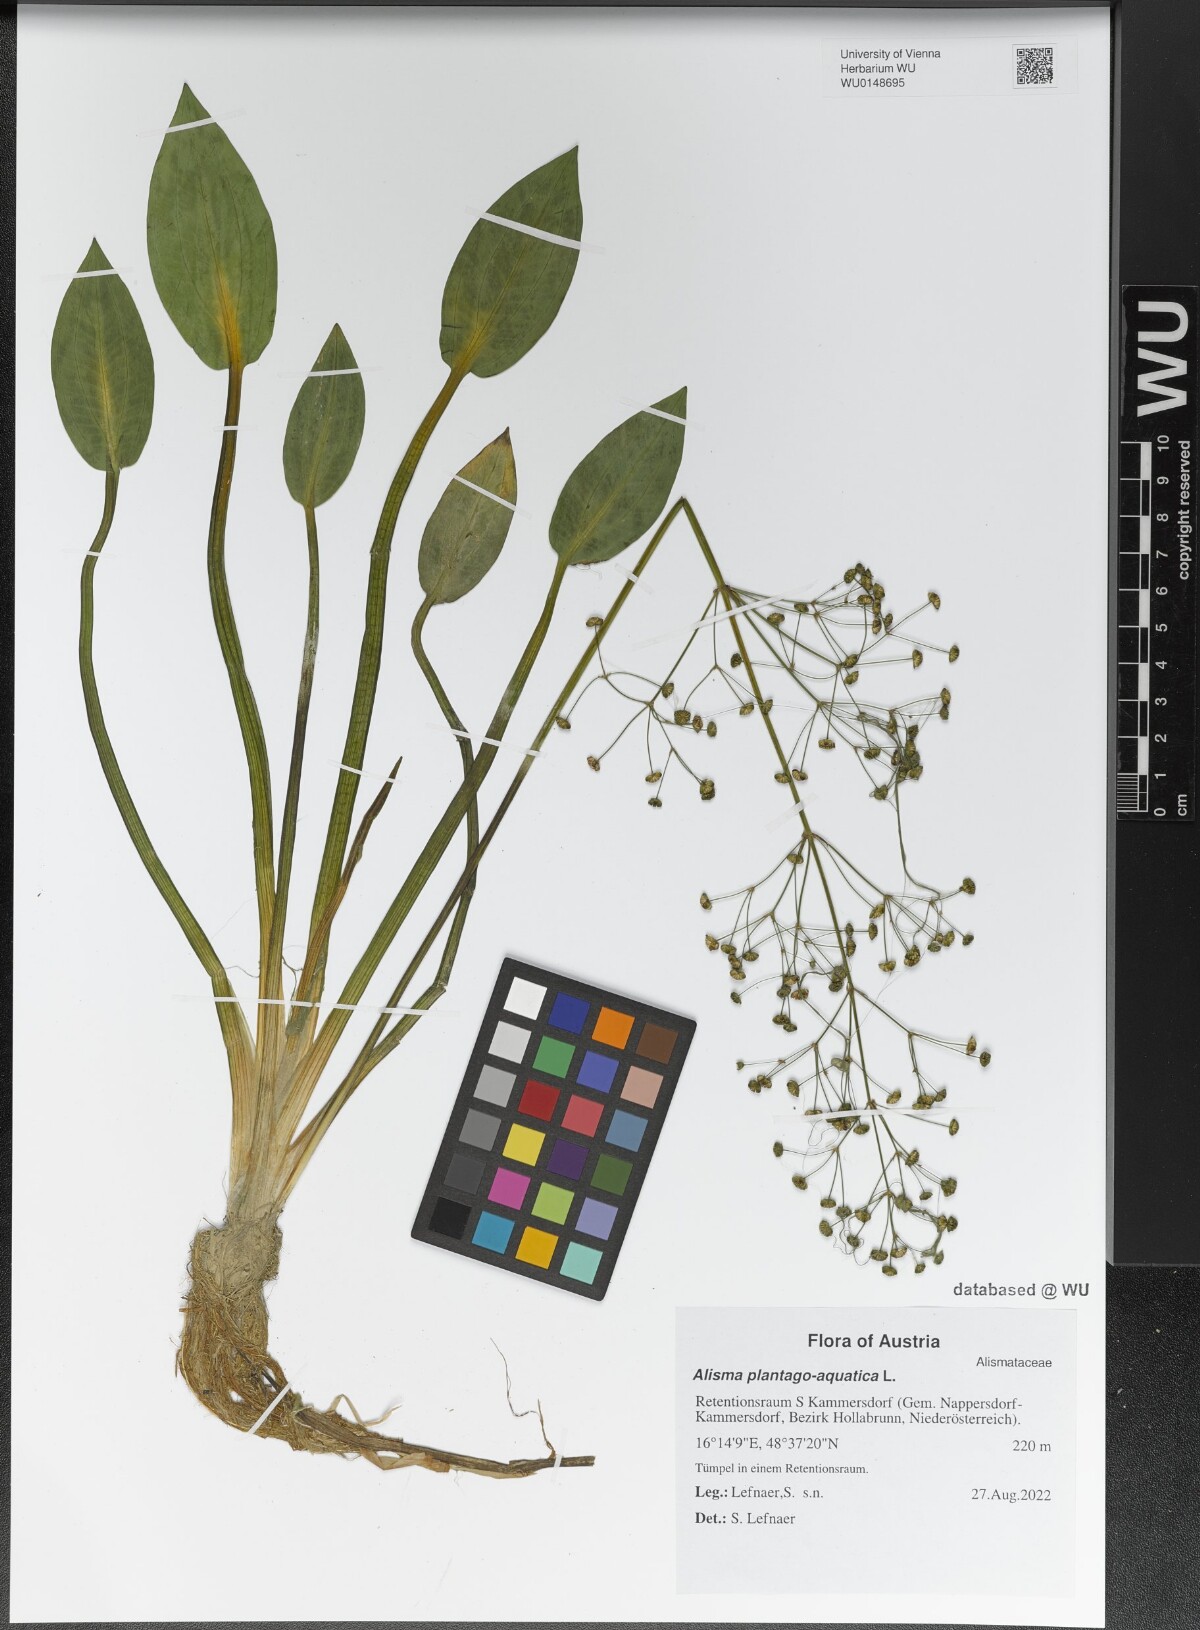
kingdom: Plantae
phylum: Tracheophyta
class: Liliopsida
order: Alismatales
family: Alismataceae
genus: Alisma
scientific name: Alisma plantago-aquatica
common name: Water-plantain
